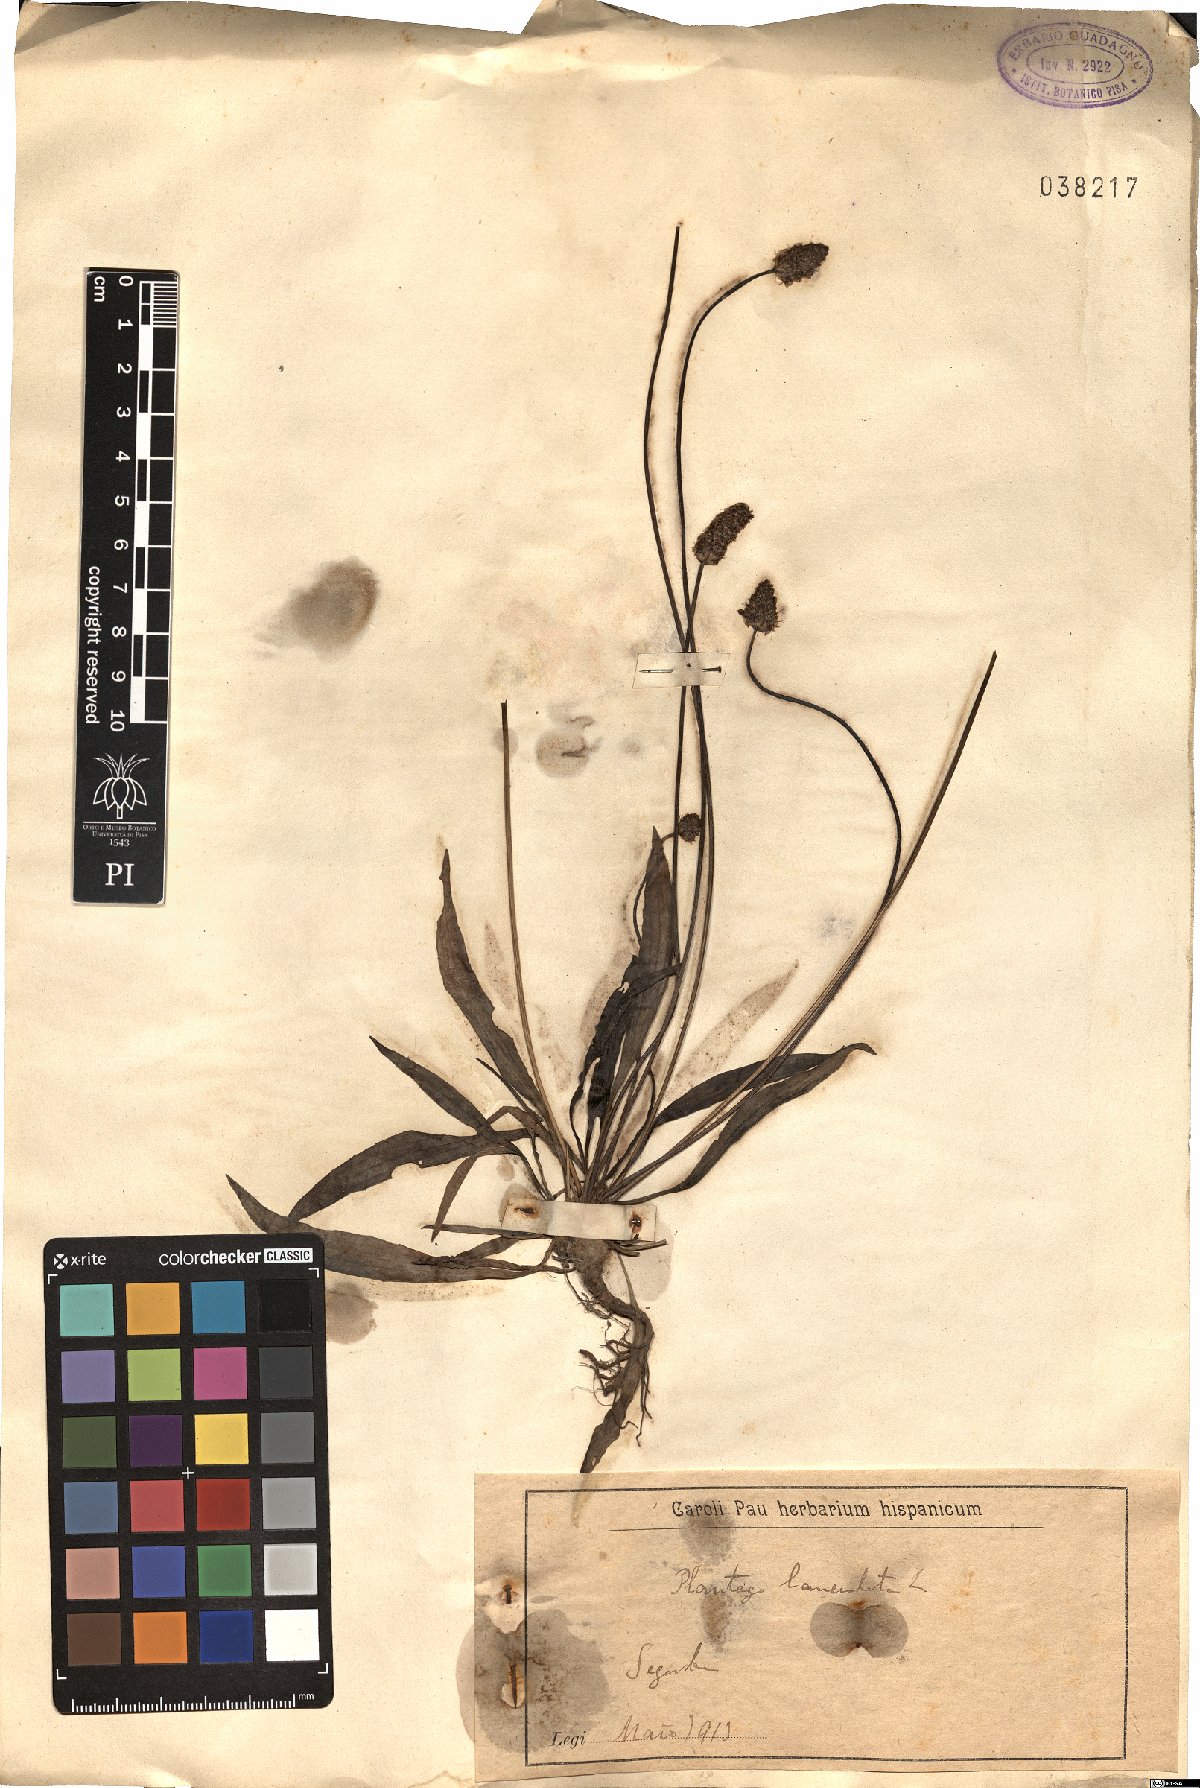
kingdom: Plantae
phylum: Tracheophyta
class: Magnoliopsida
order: Lamiales
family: Plantaginaceae
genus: Plantago
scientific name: Plantago lanceolata
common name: Ribwort plantain
